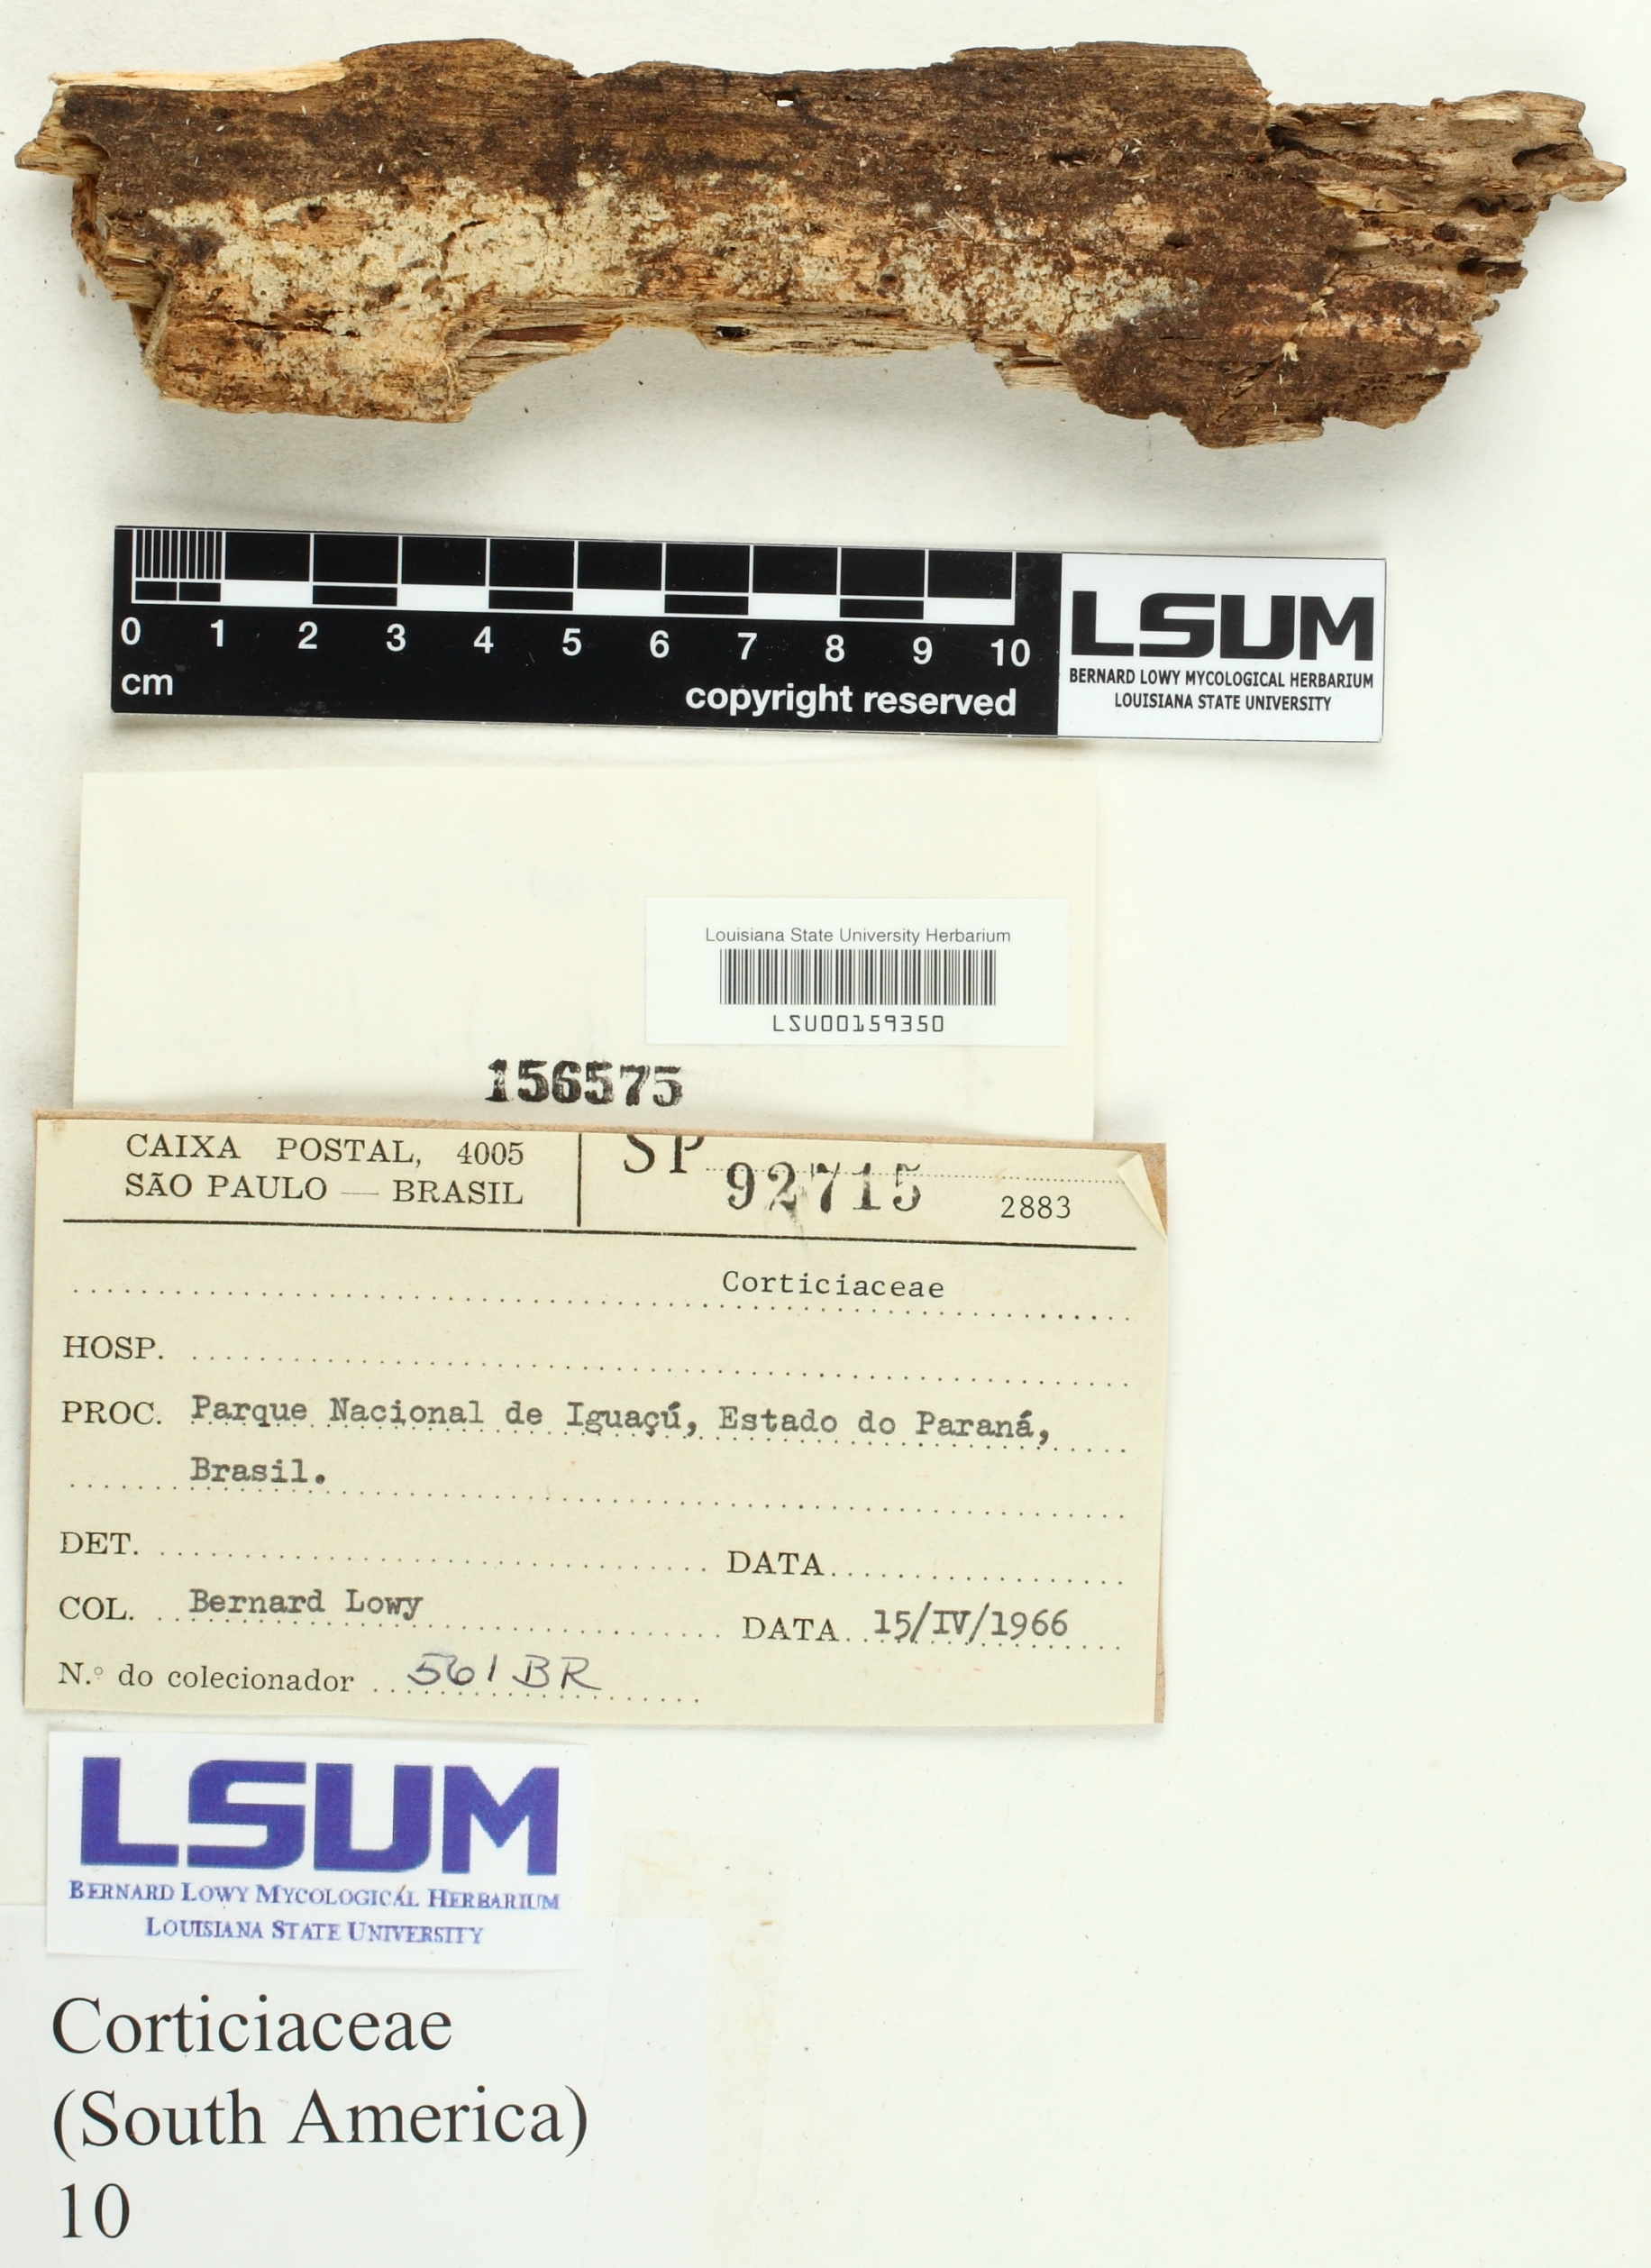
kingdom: Fungi
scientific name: Fungi
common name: Fungi
